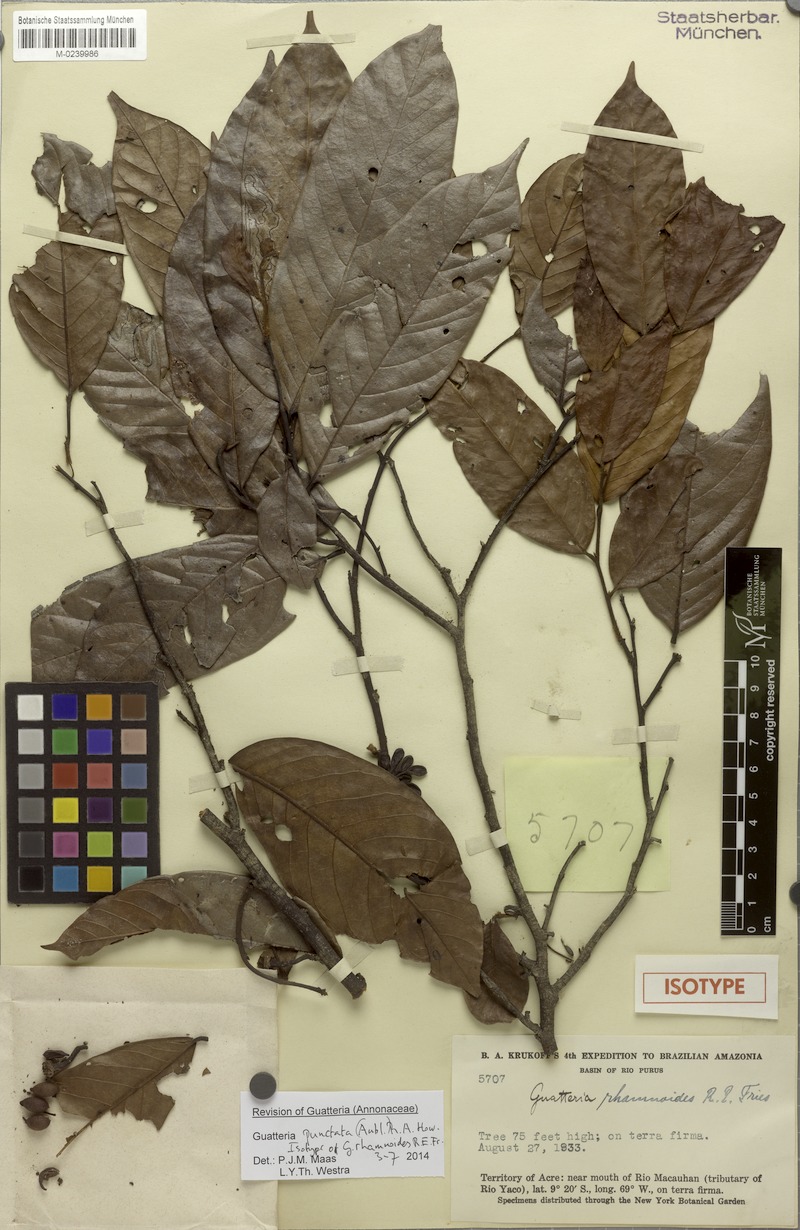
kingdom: Plantae
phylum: Tracheophyta
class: Magnoliopsida
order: Magnoliales
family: Annonaceae
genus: Guatteria
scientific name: Guatteria punctata
